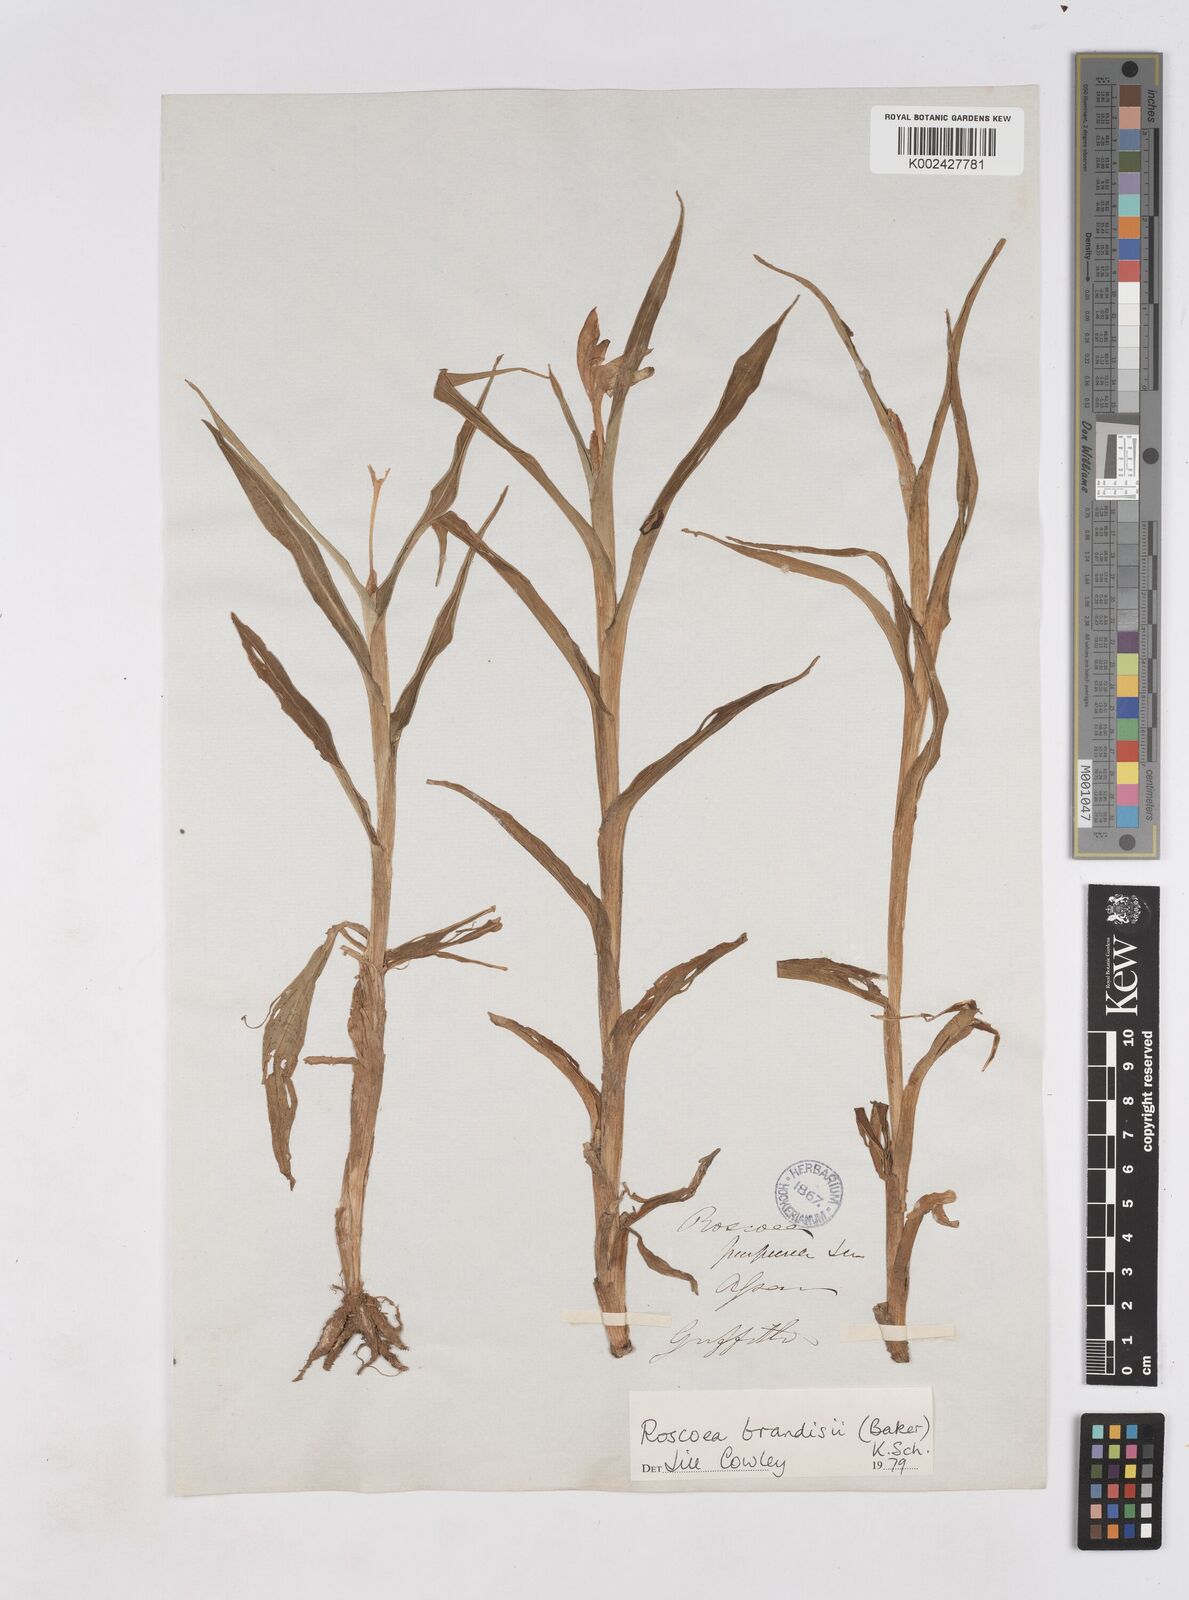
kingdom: Plantae
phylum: Tracheophyta
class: Liliopsida
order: Zingiberales
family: Zingiberaceae
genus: Roscoea
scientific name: Roscoea brandisii
